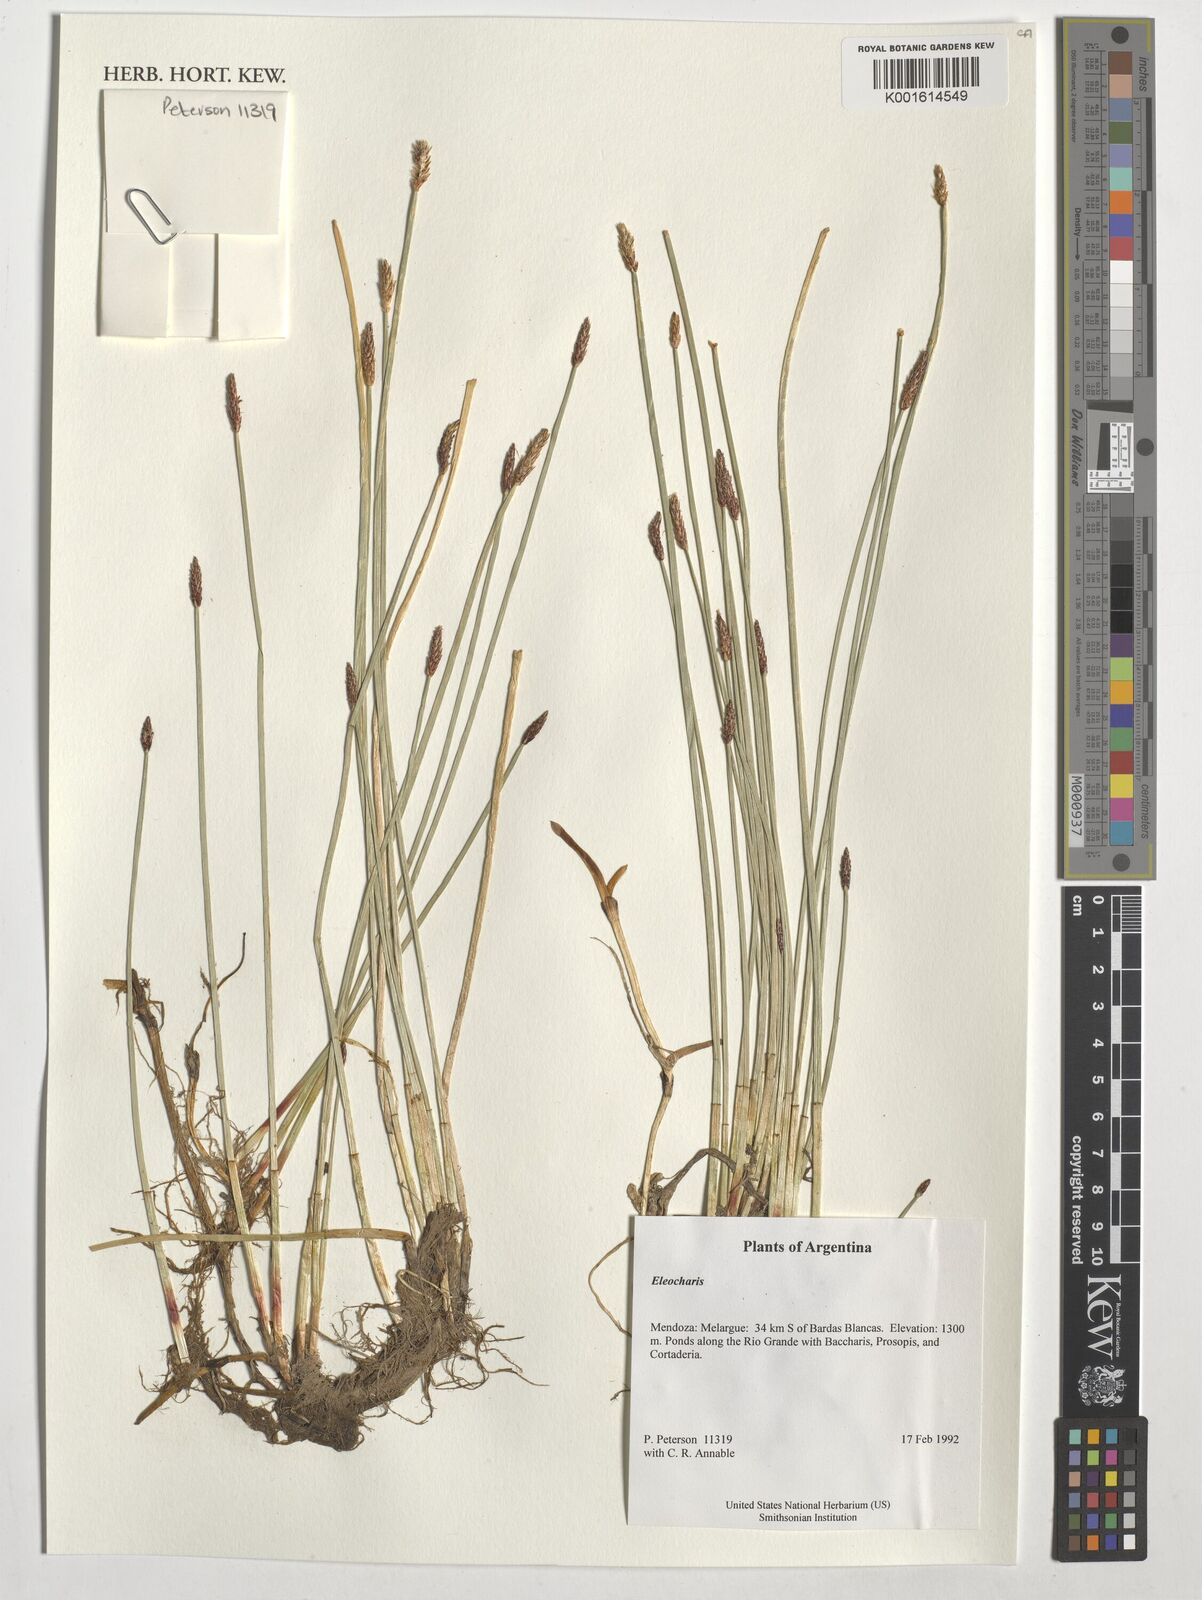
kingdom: Plantae
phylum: Tracheophyta
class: Liliopsida
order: Poales
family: Cyperaceae
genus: Eleocharis
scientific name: Eleocharis
